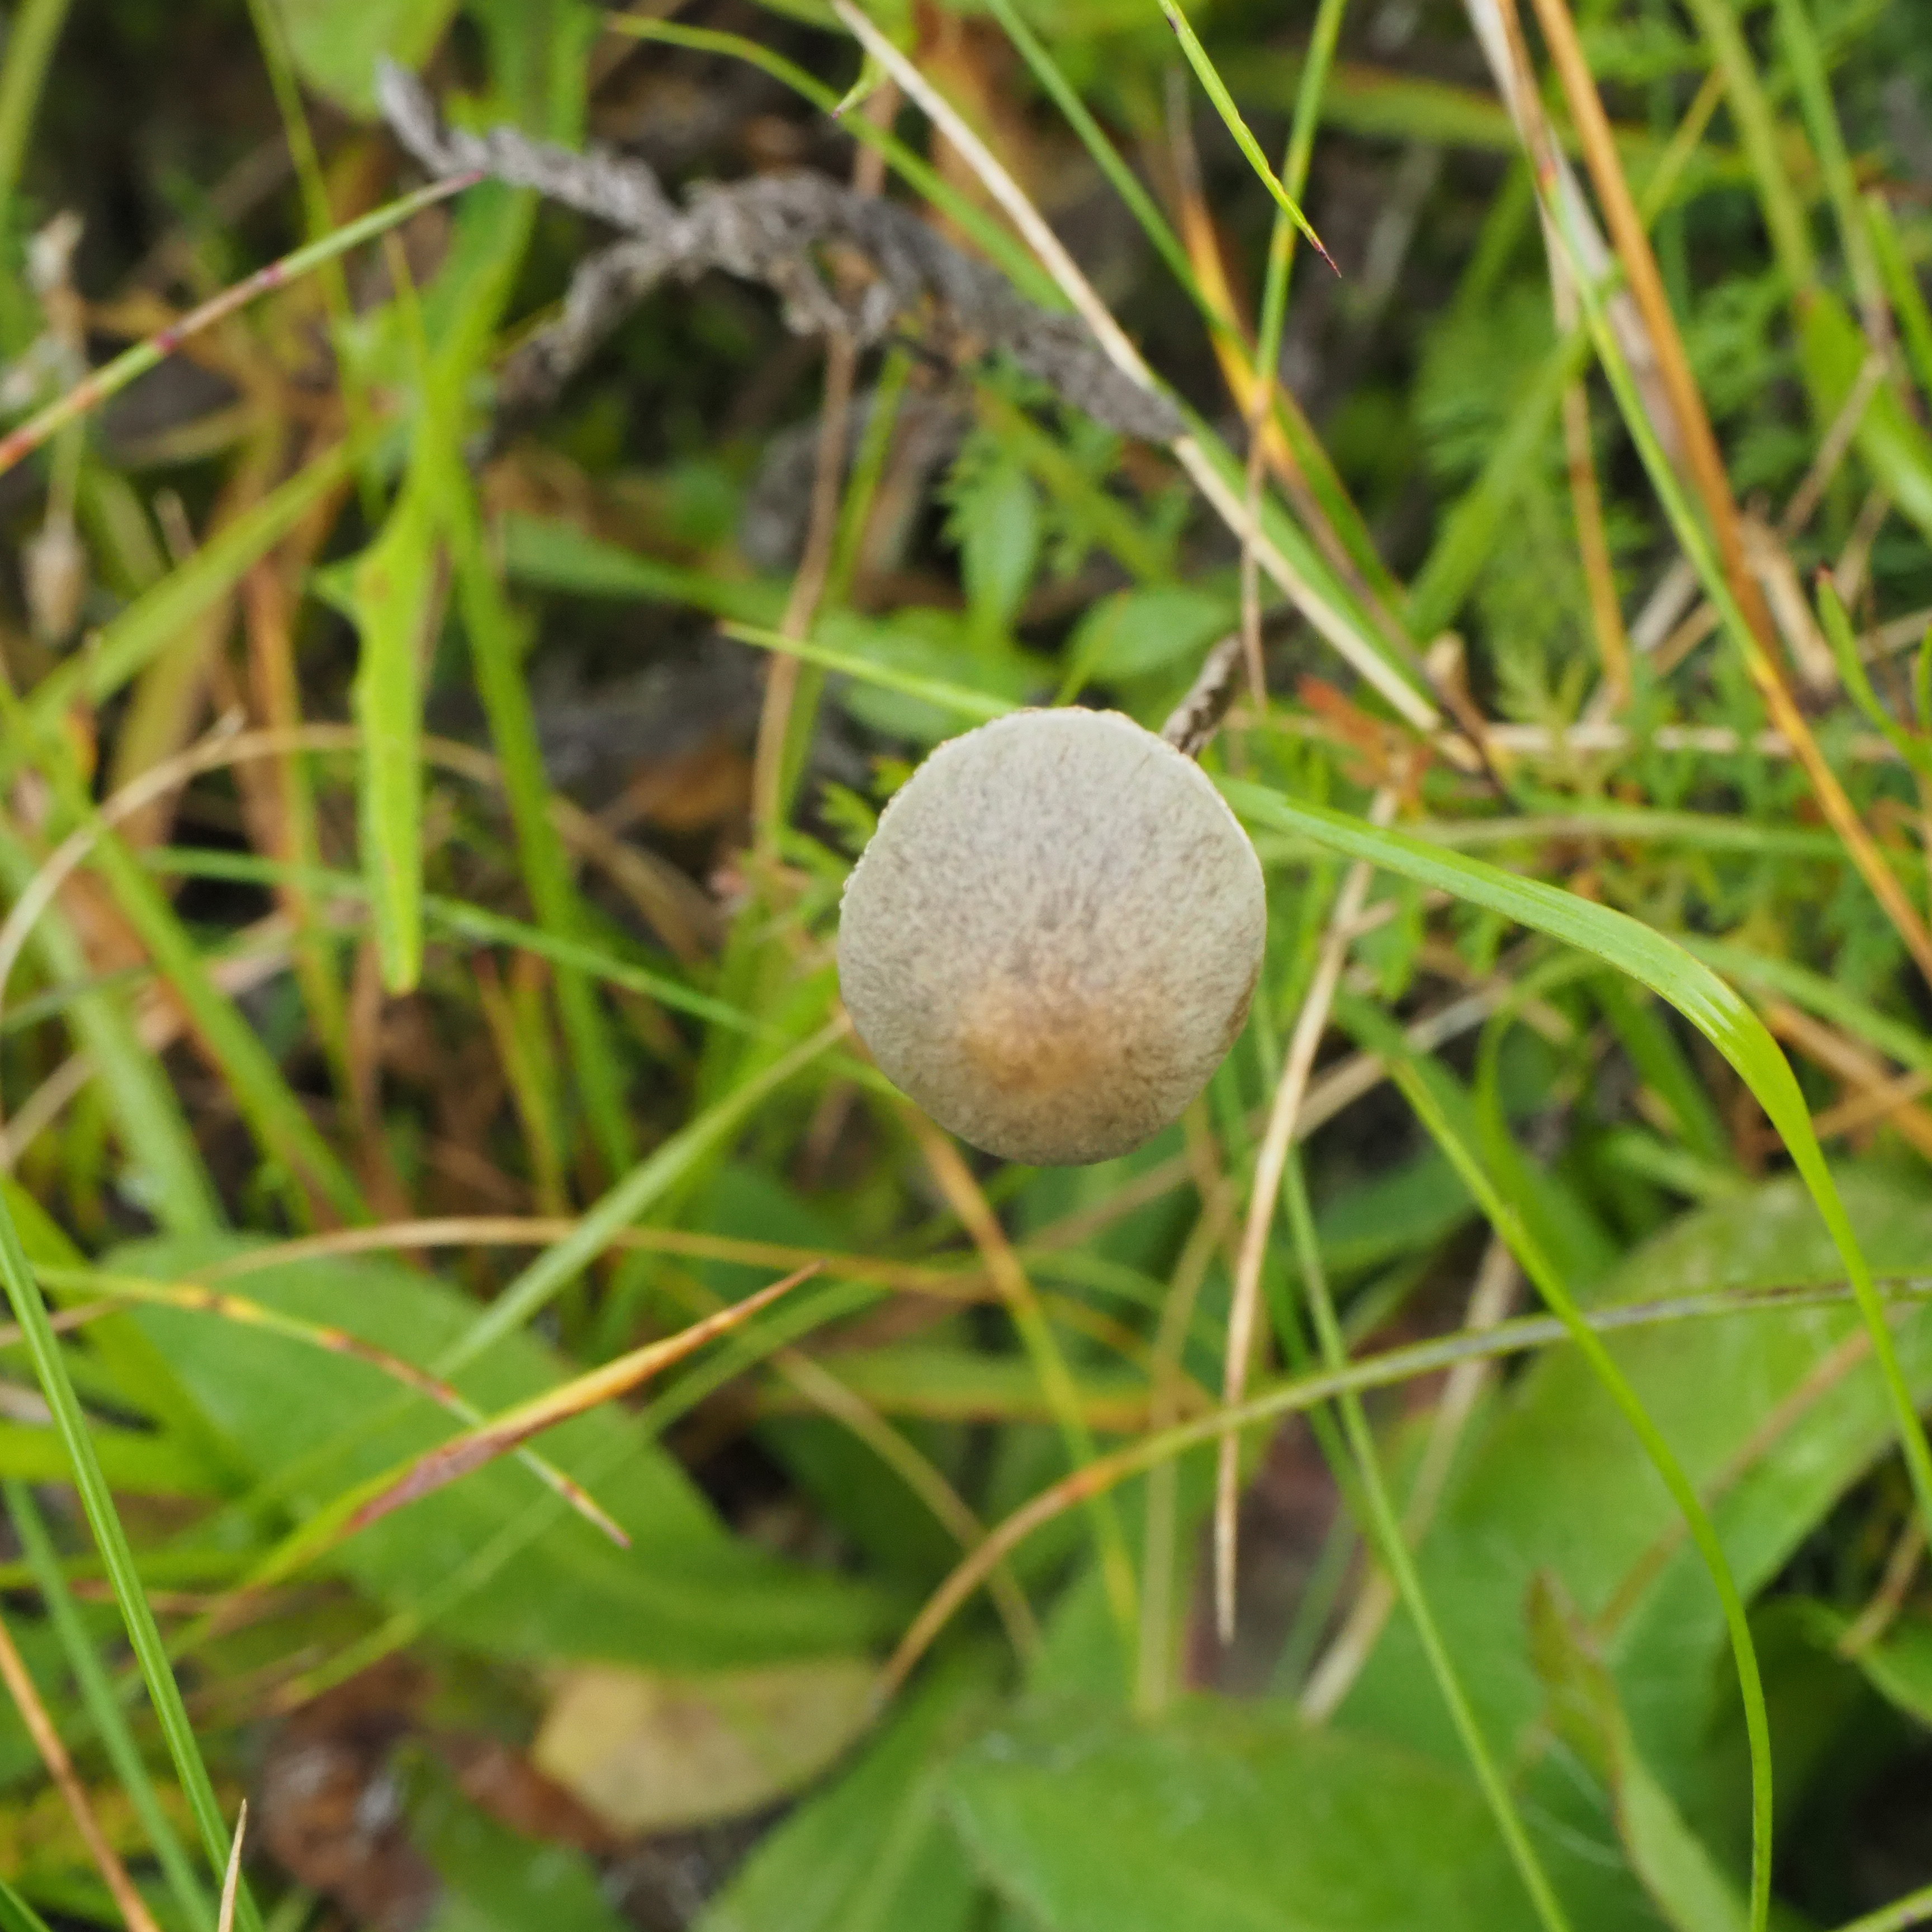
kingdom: Fungi
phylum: Basidiomycota
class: Agaricomycetes
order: Agaricales
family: Bolbitiaceae
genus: Panaeolus
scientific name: Panaeolus
